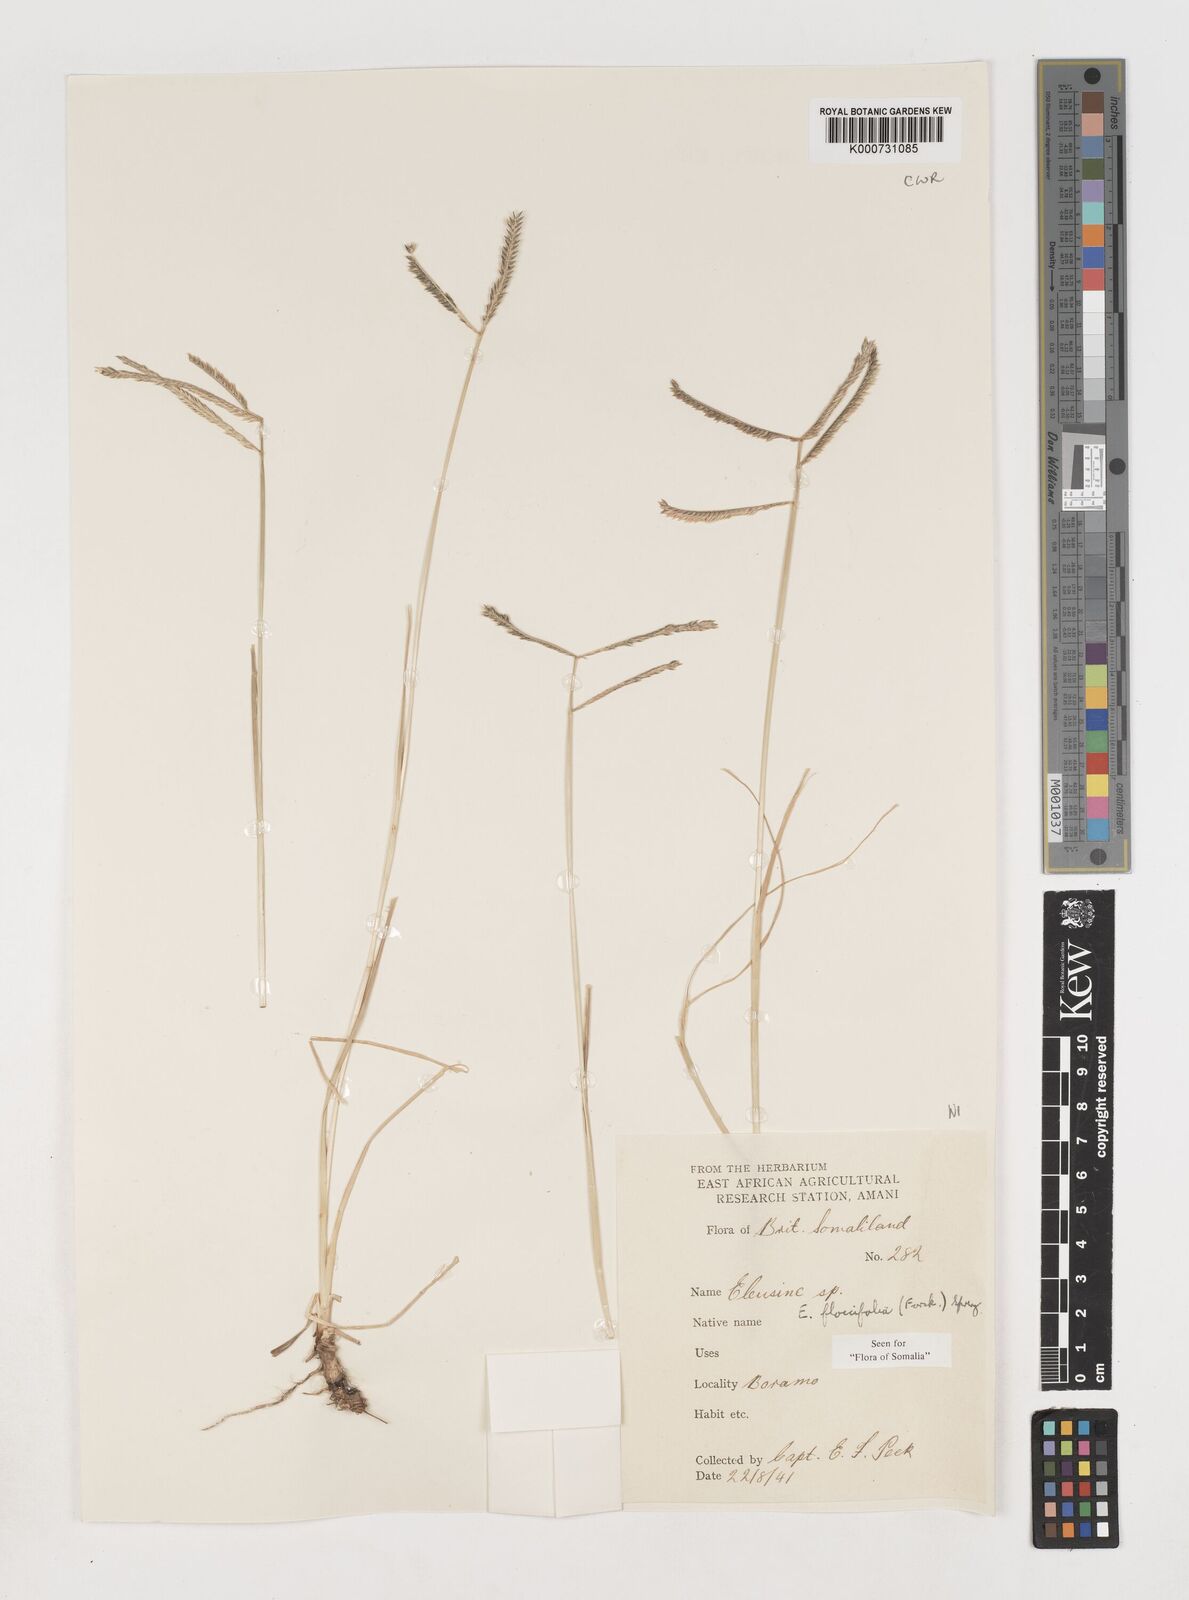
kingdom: Plantae
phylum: Tracheophyta
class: Liliopsida
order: Poales
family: Poaceae
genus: Eleusine
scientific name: Eleusine floccifolia
